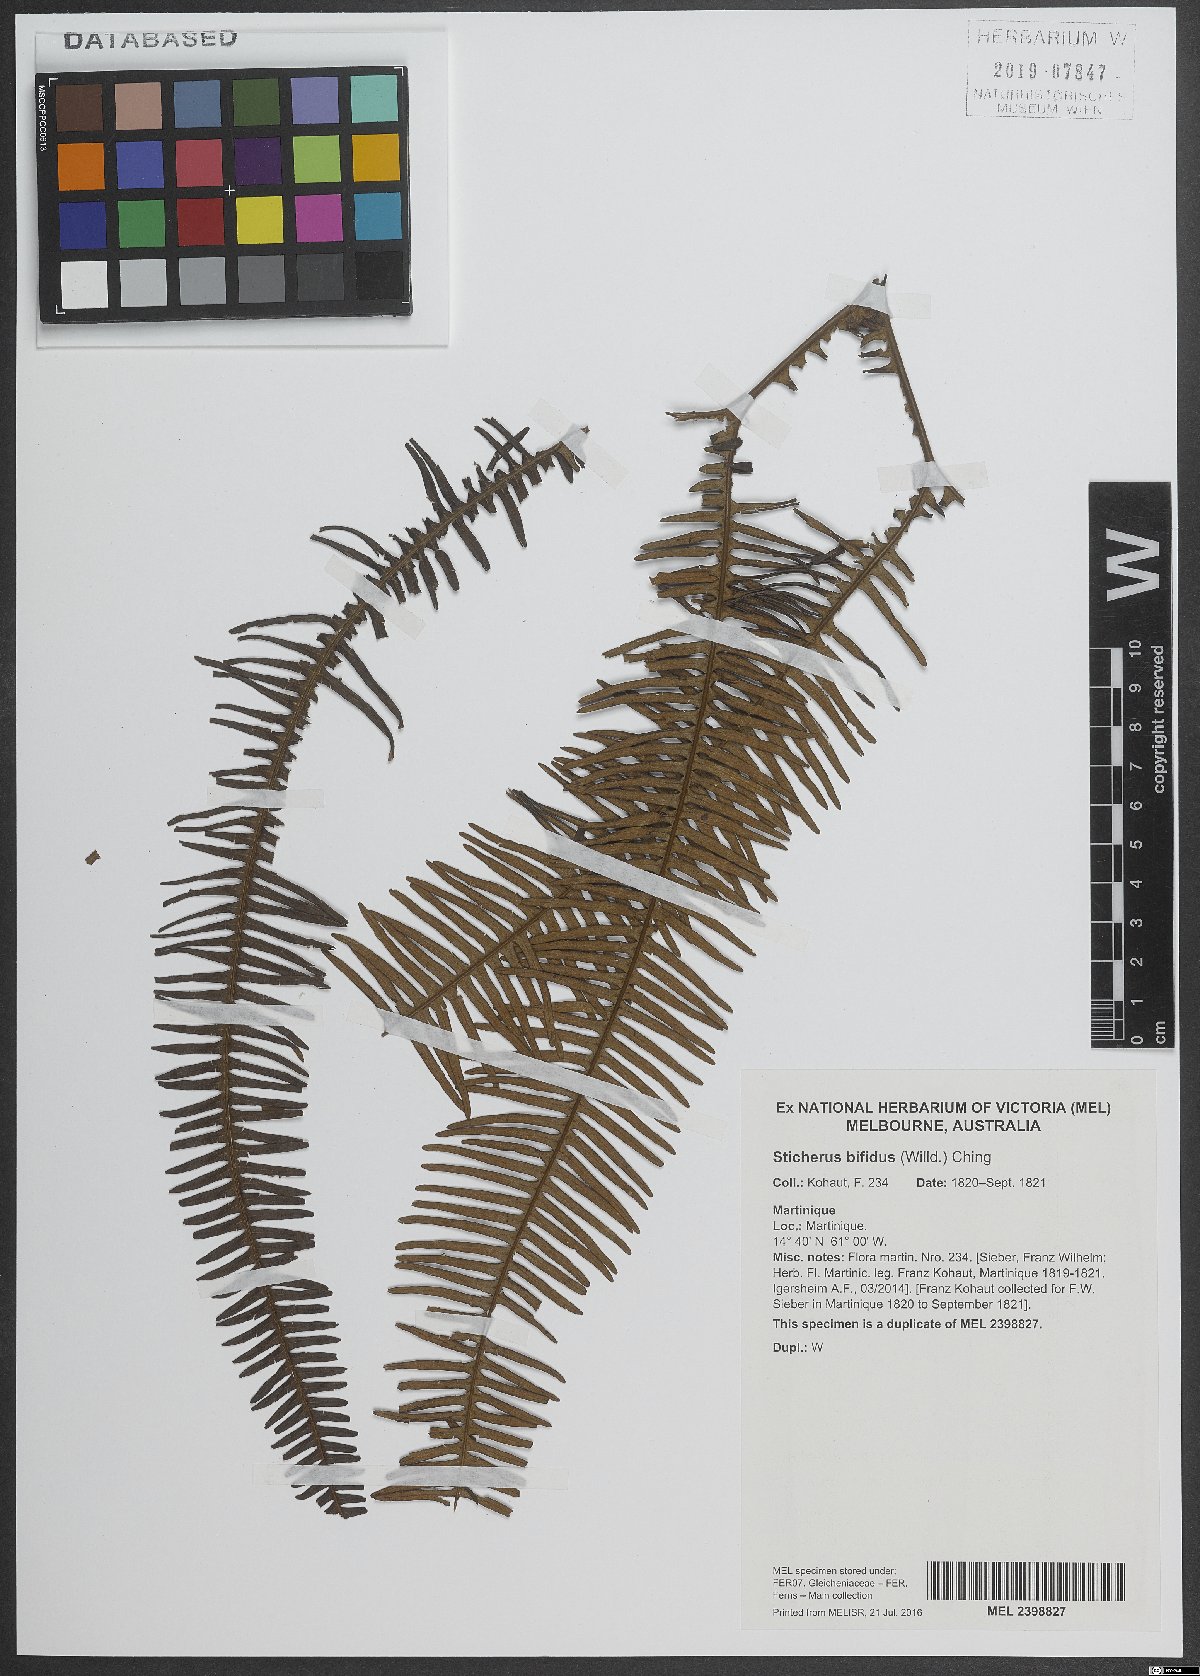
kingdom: Plantae
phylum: Tracheophyta
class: Polypodiopsida
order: Gleicheniales
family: Gleicheniaceae
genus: Sticherus
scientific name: Sticherus bifidus
